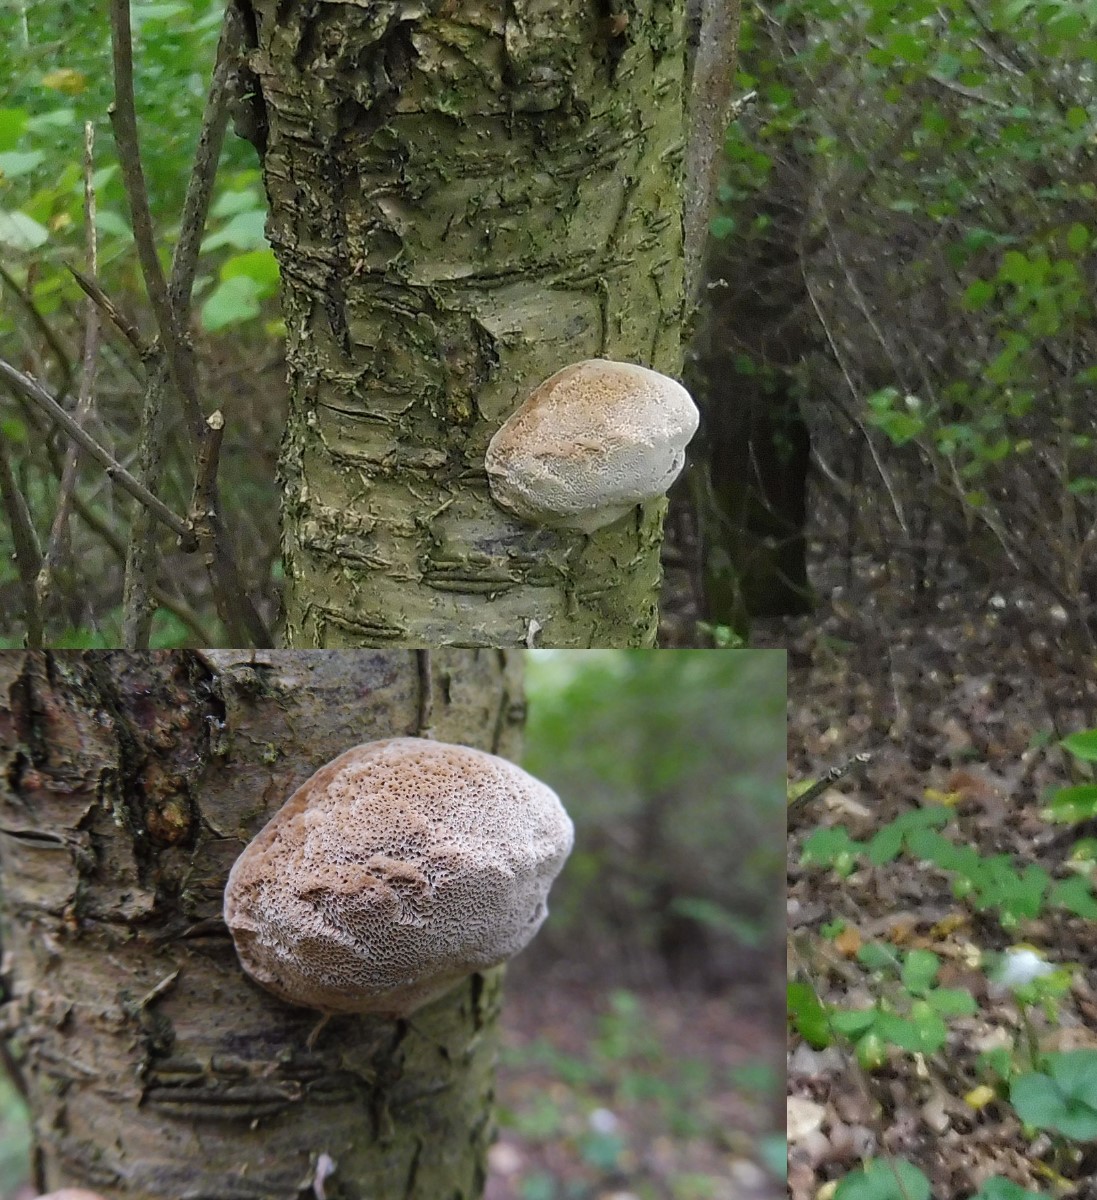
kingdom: Fungi
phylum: Basidiomycota
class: Agaricomycetes
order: Hymenochaetales
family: Hymenochaetaceae
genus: Phellinus
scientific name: Phellinus pomaceus
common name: blomme-ildporesvamp
